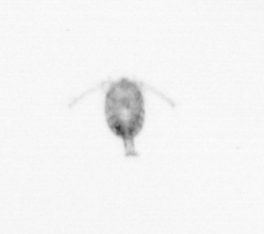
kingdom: Animalia
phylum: Arthropoda
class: Copepoda
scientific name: Copepoda
